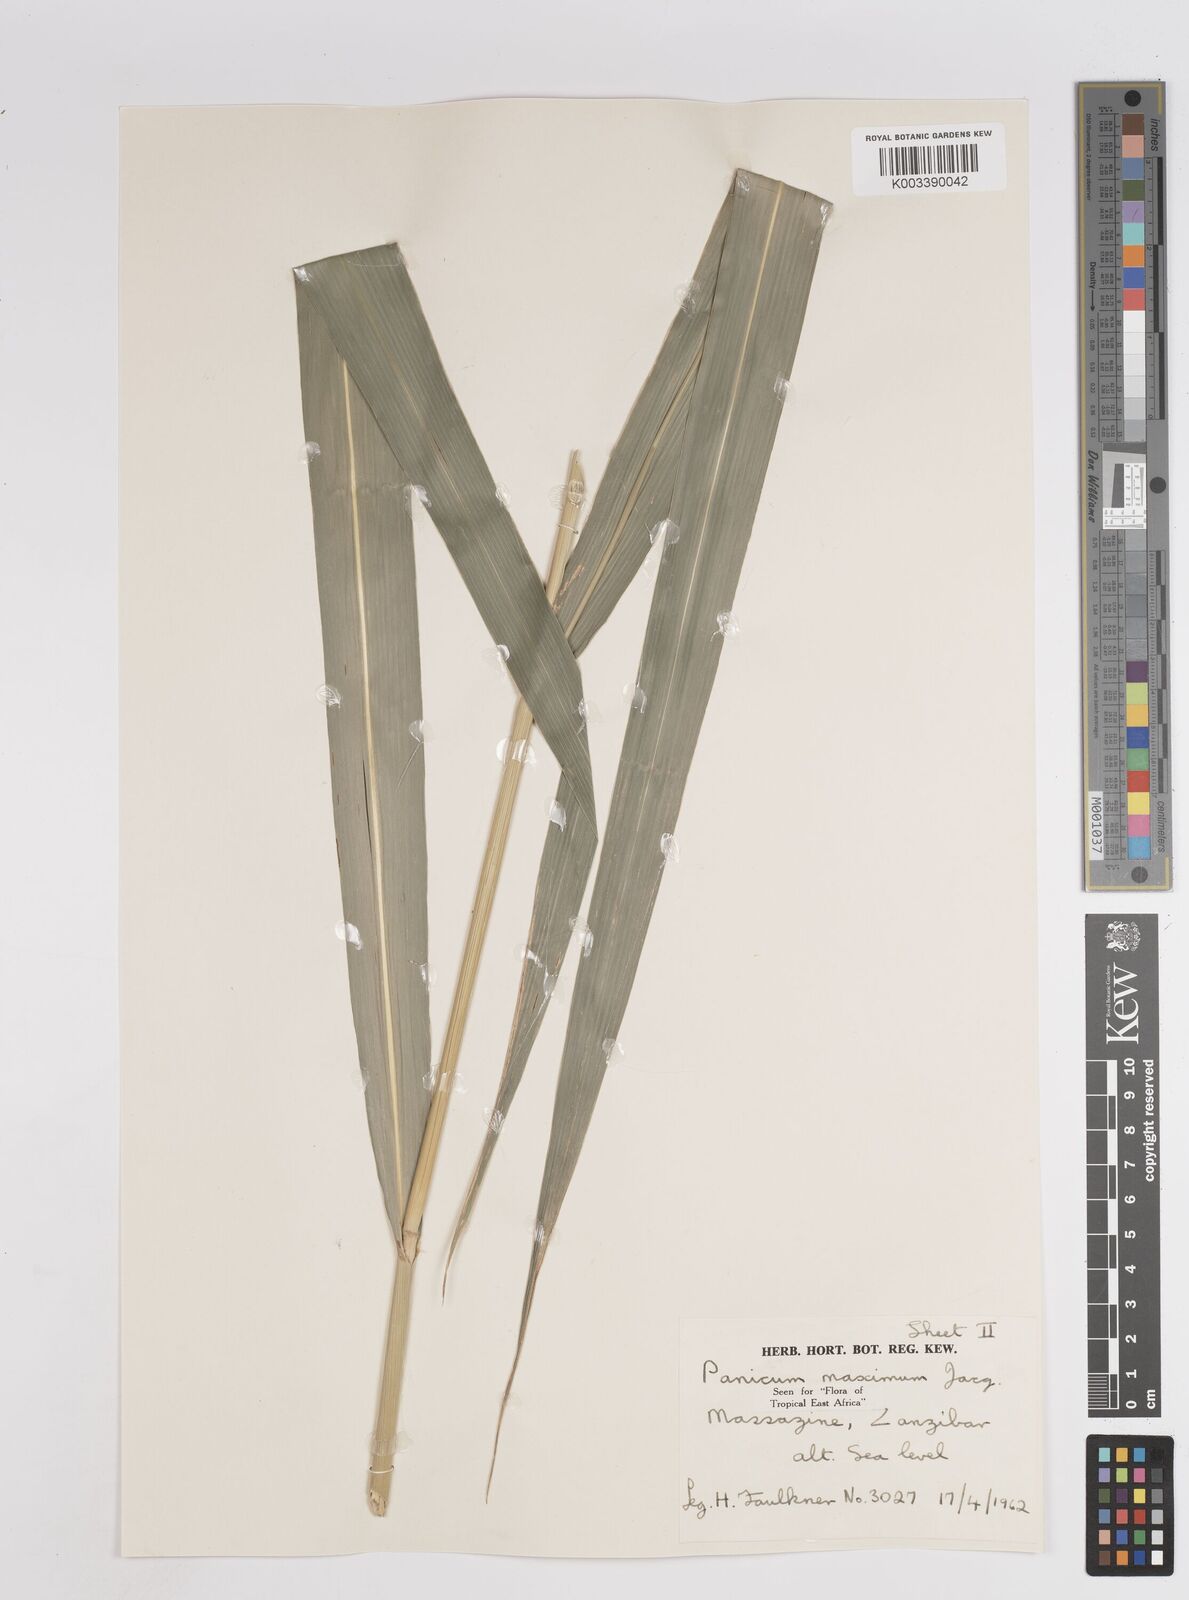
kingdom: Plantae
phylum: Tracheophyta
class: Liliopsida
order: Poales
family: Poaceae
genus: Megathyrsus
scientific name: Megathyrsus maximus
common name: Guineagrass
